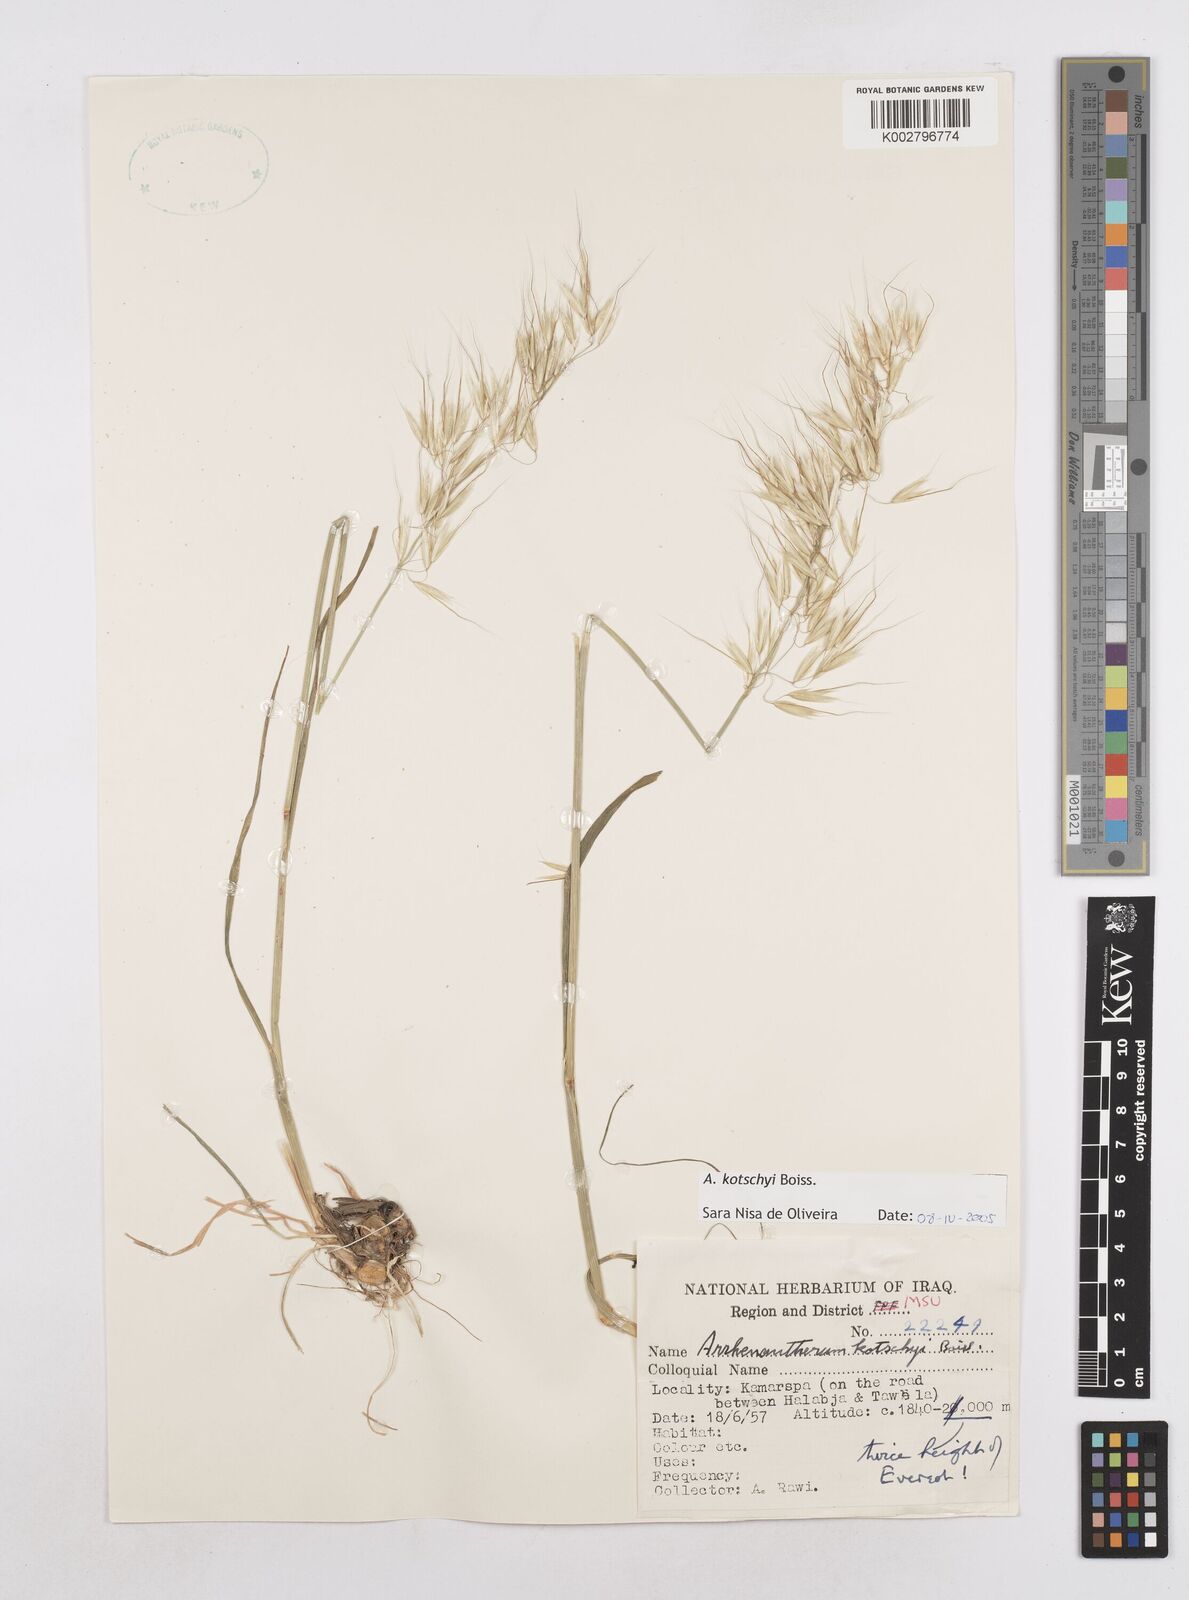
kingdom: Plantae
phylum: Tracheophyta
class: Liliopsida
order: Poales
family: Poaceae
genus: Arrhenatherum
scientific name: Arrhenatherum kotschyi
